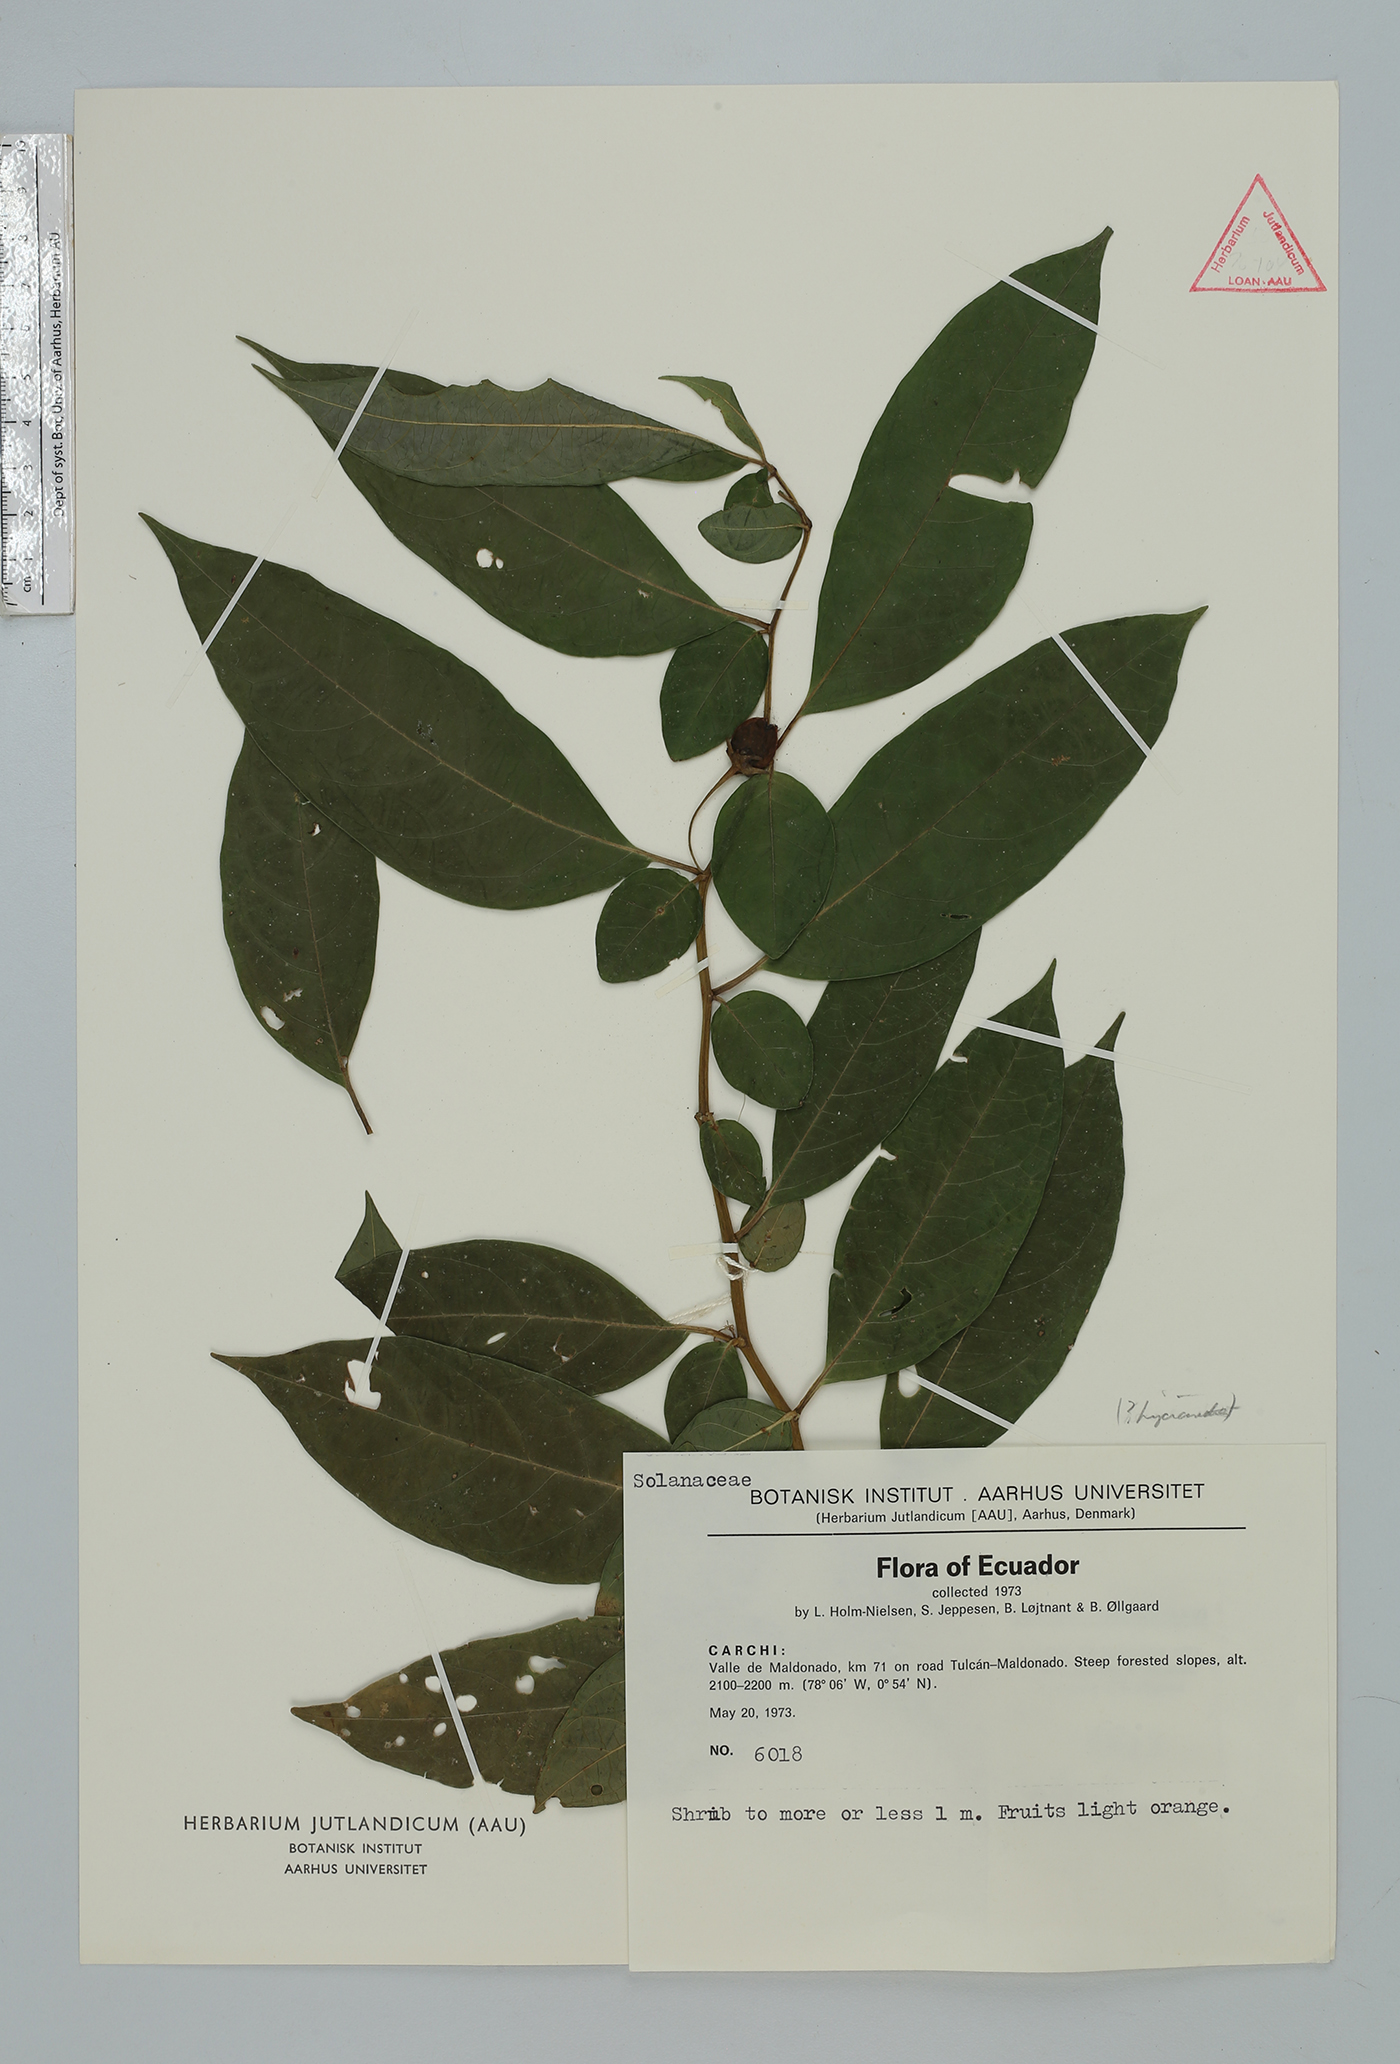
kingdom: Plantae
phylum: Tracheophyta
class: Magnoliopsida
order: Solanales
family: Solanaceae
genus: Capsicum
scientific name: Capsicum
